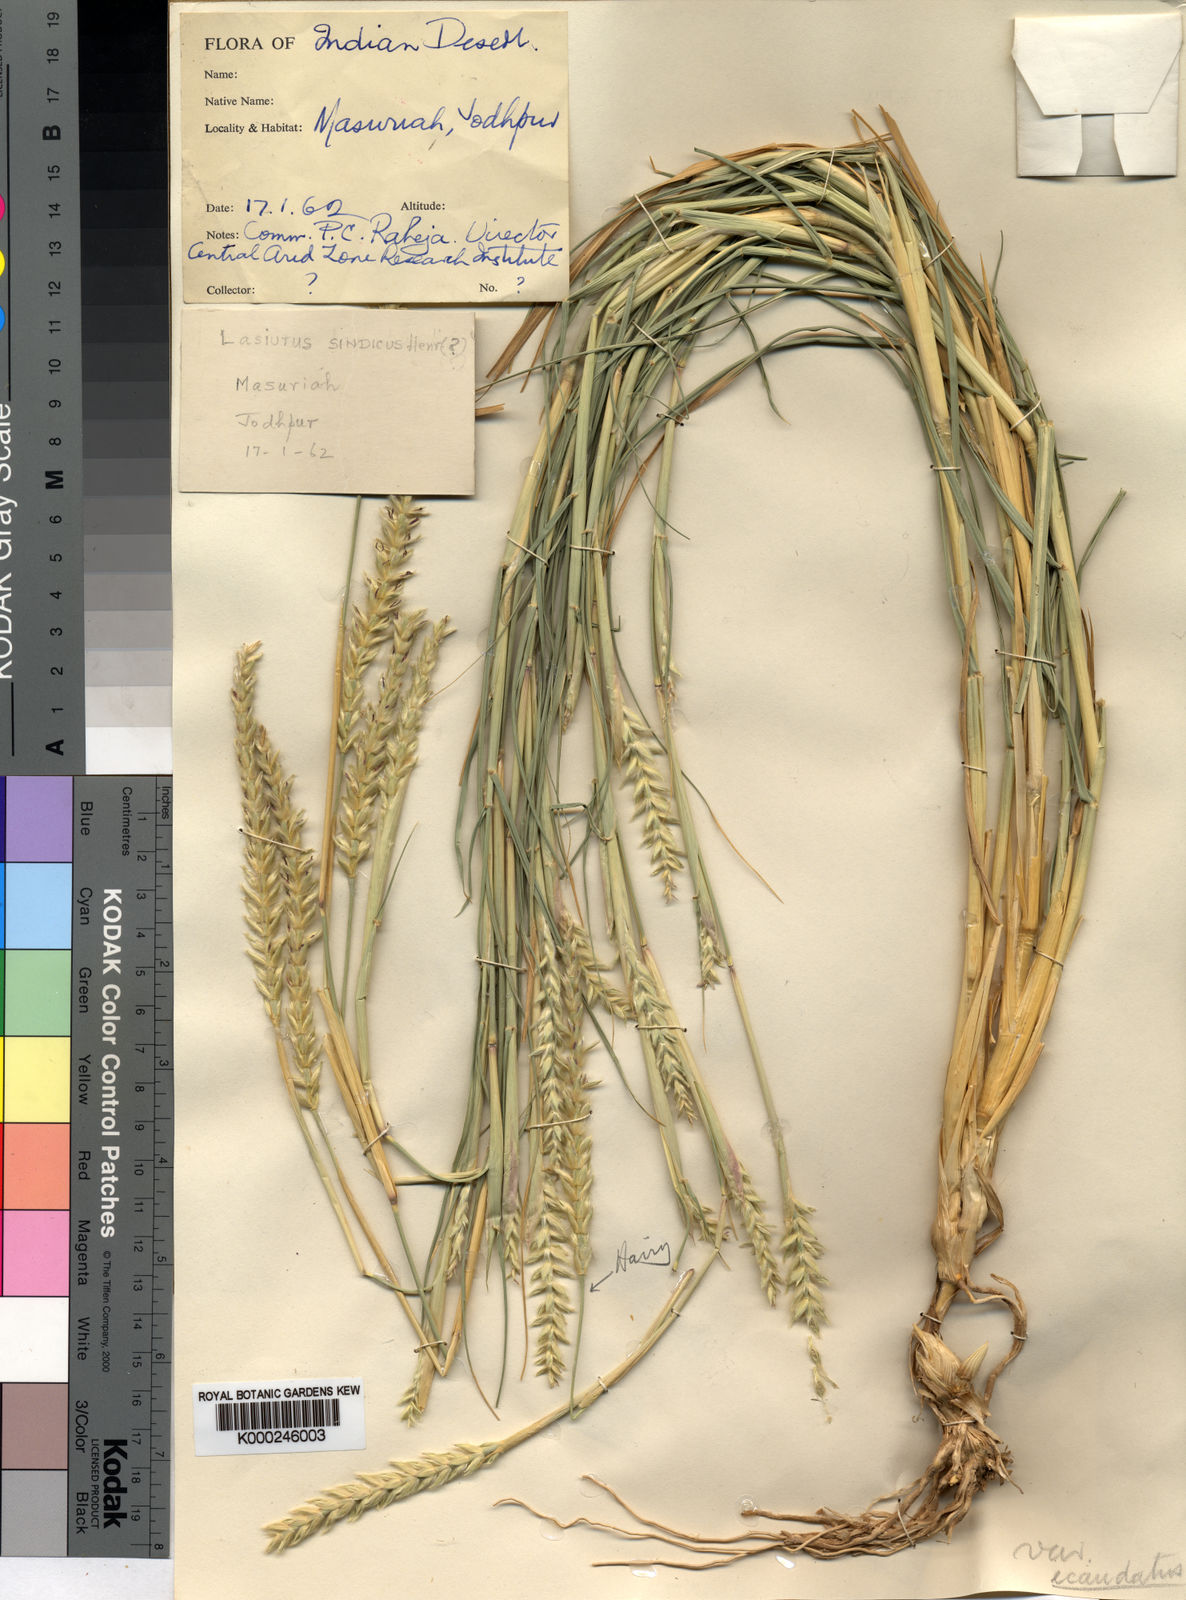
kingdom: Plantae
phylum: Tracheophyta
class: Liliopsida
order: Poales
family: Poaceae
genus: Lasiurus
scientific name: Lasiurus scindicus
